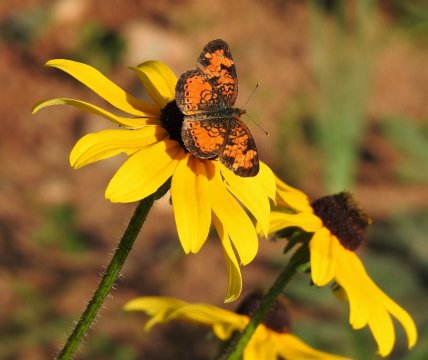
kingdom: Animalia
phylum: Arthropoda
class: Insecta
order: Lepidoptera
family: Nymphalidae
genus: Phyciodes
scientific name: Phyciodes tharos
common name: Northern Crescent
